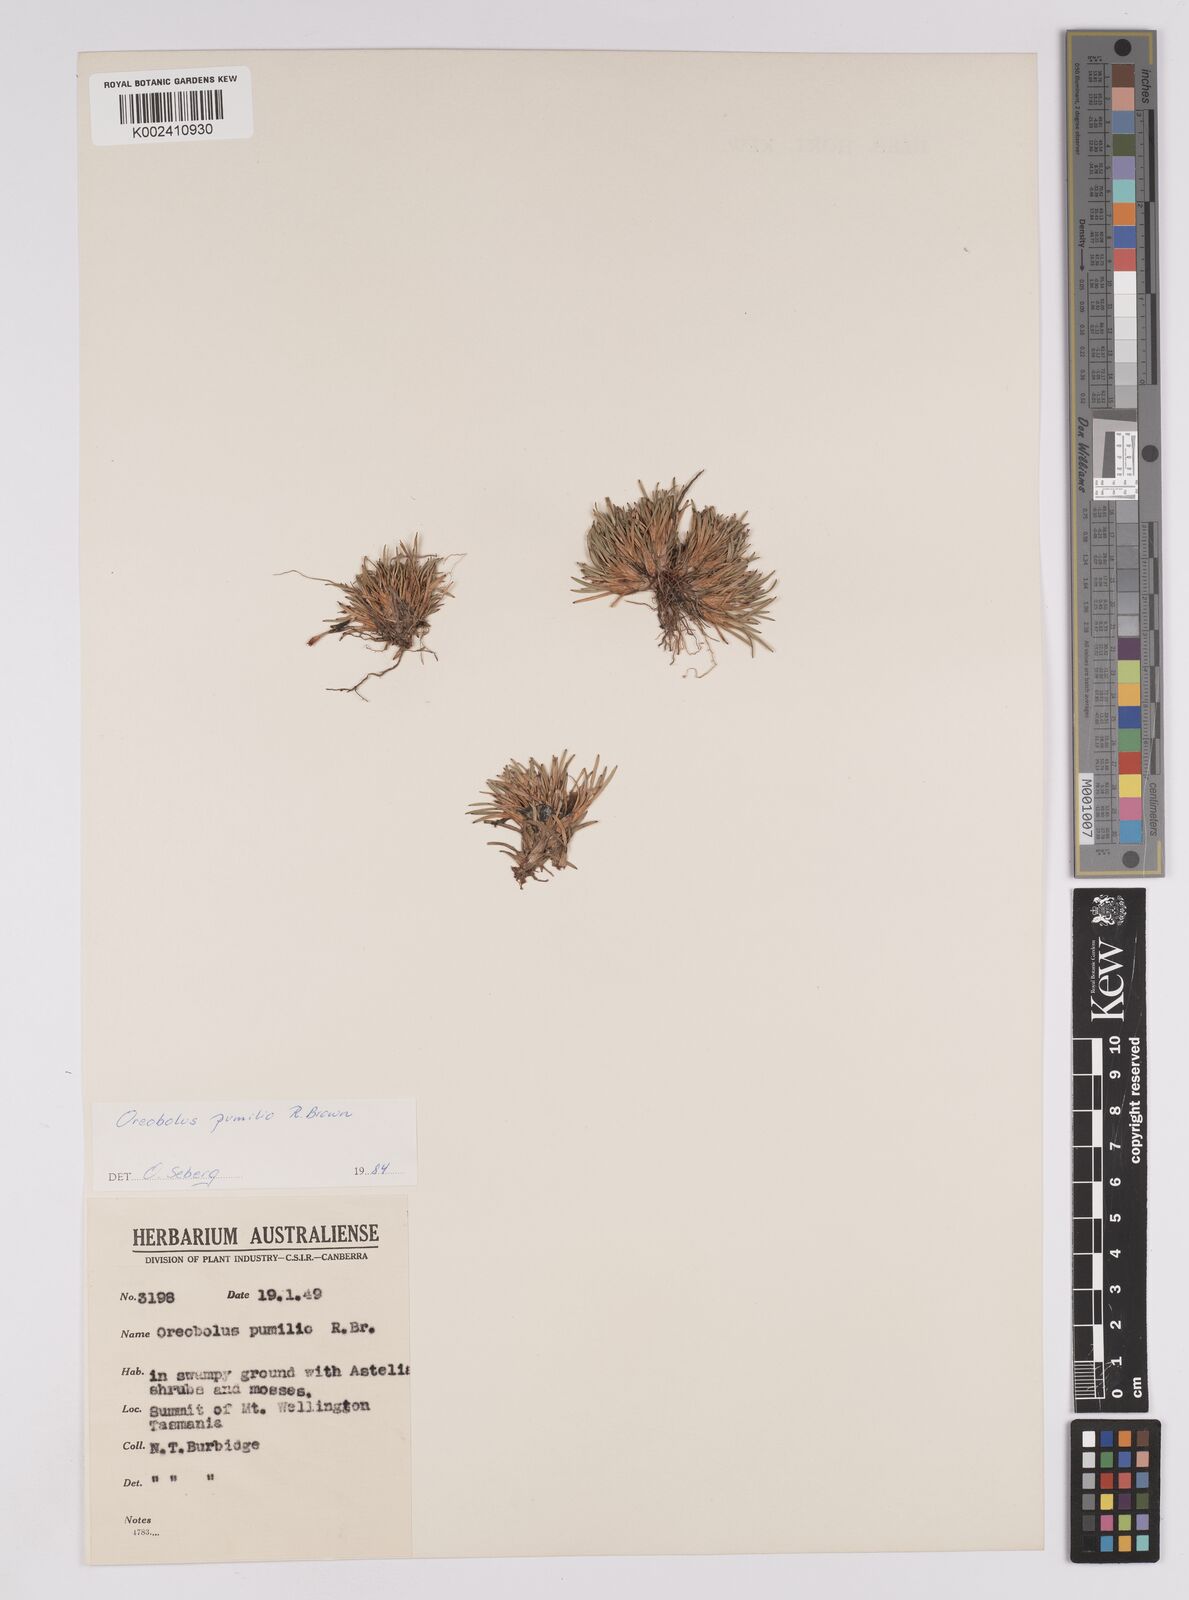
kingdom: Plantae
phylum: Tracheophyta
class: Liliopsida
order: Poales
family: Cyperaceae
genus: Oreobolus
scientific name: Oreobolus pumilio
